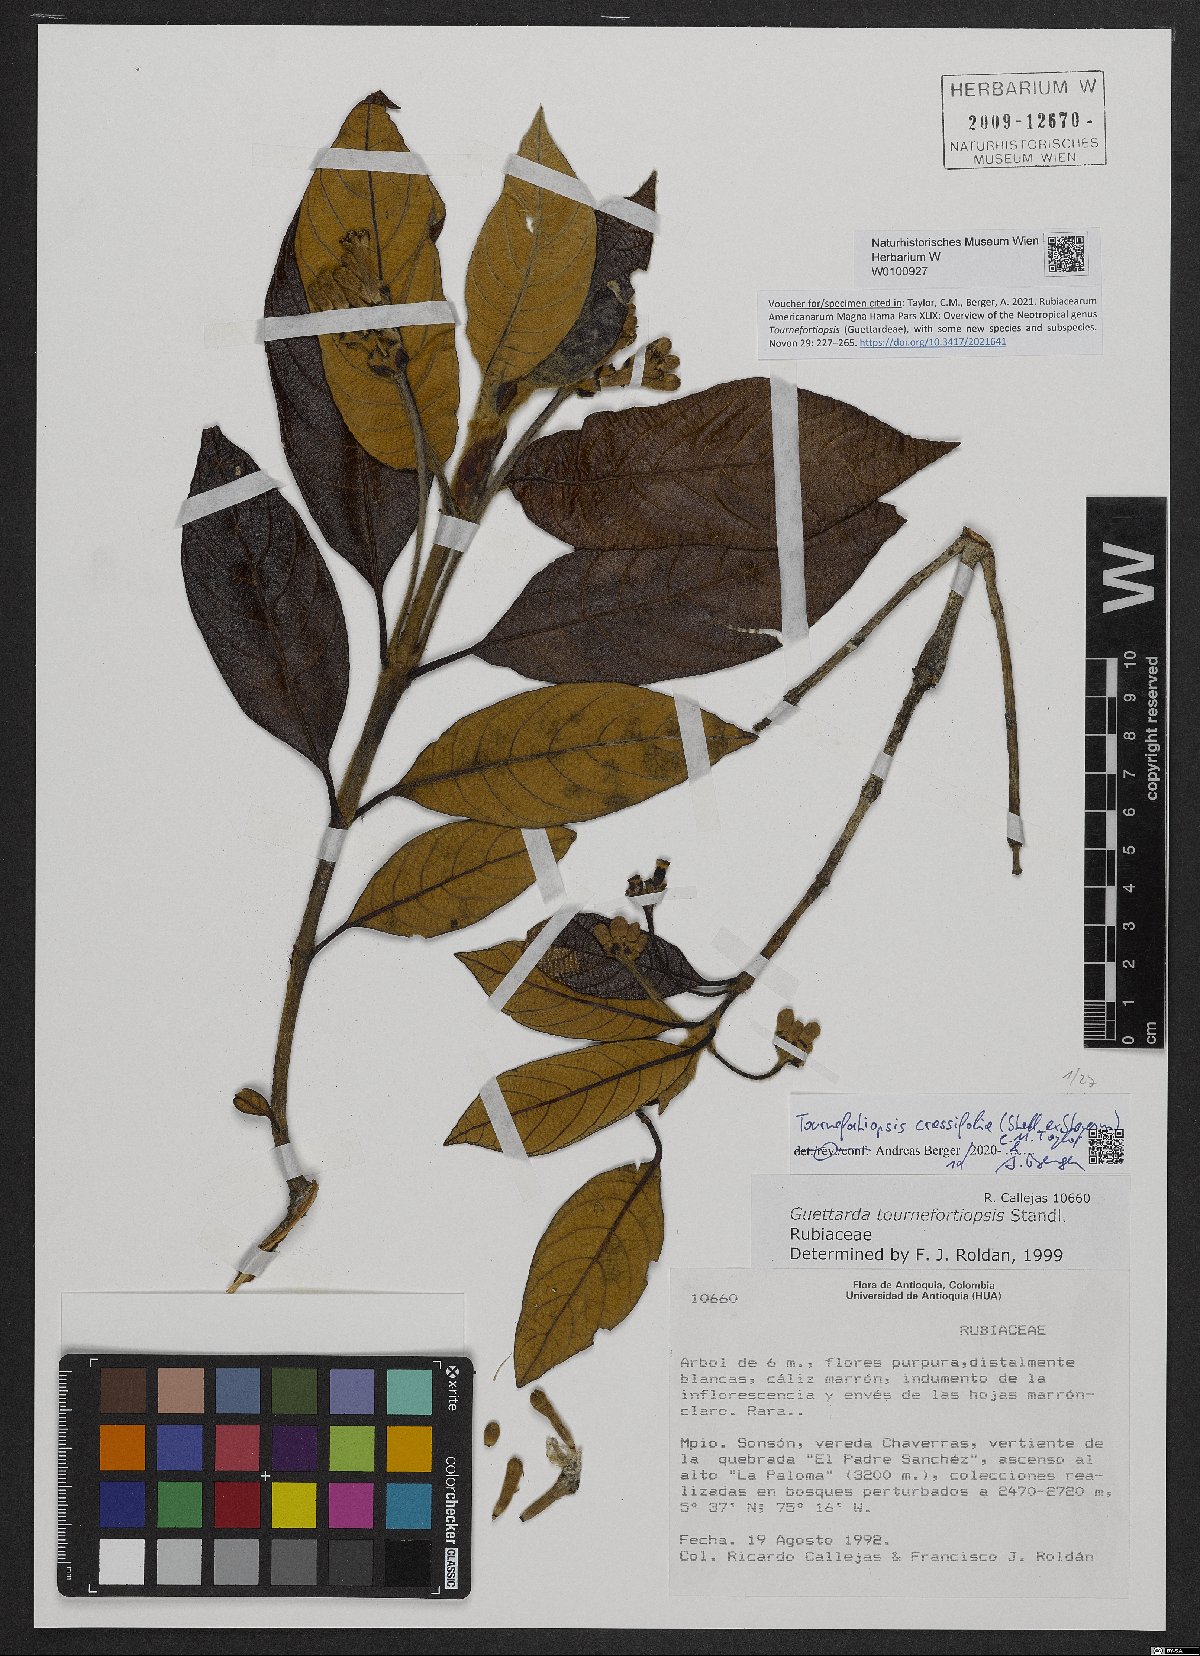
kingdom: Plantae
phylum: Tracheophyta
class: Magnoliopsida
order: Gentianales
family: Rubiaceae
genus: Tournefortiopsis
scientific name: Tournefortiopsis
